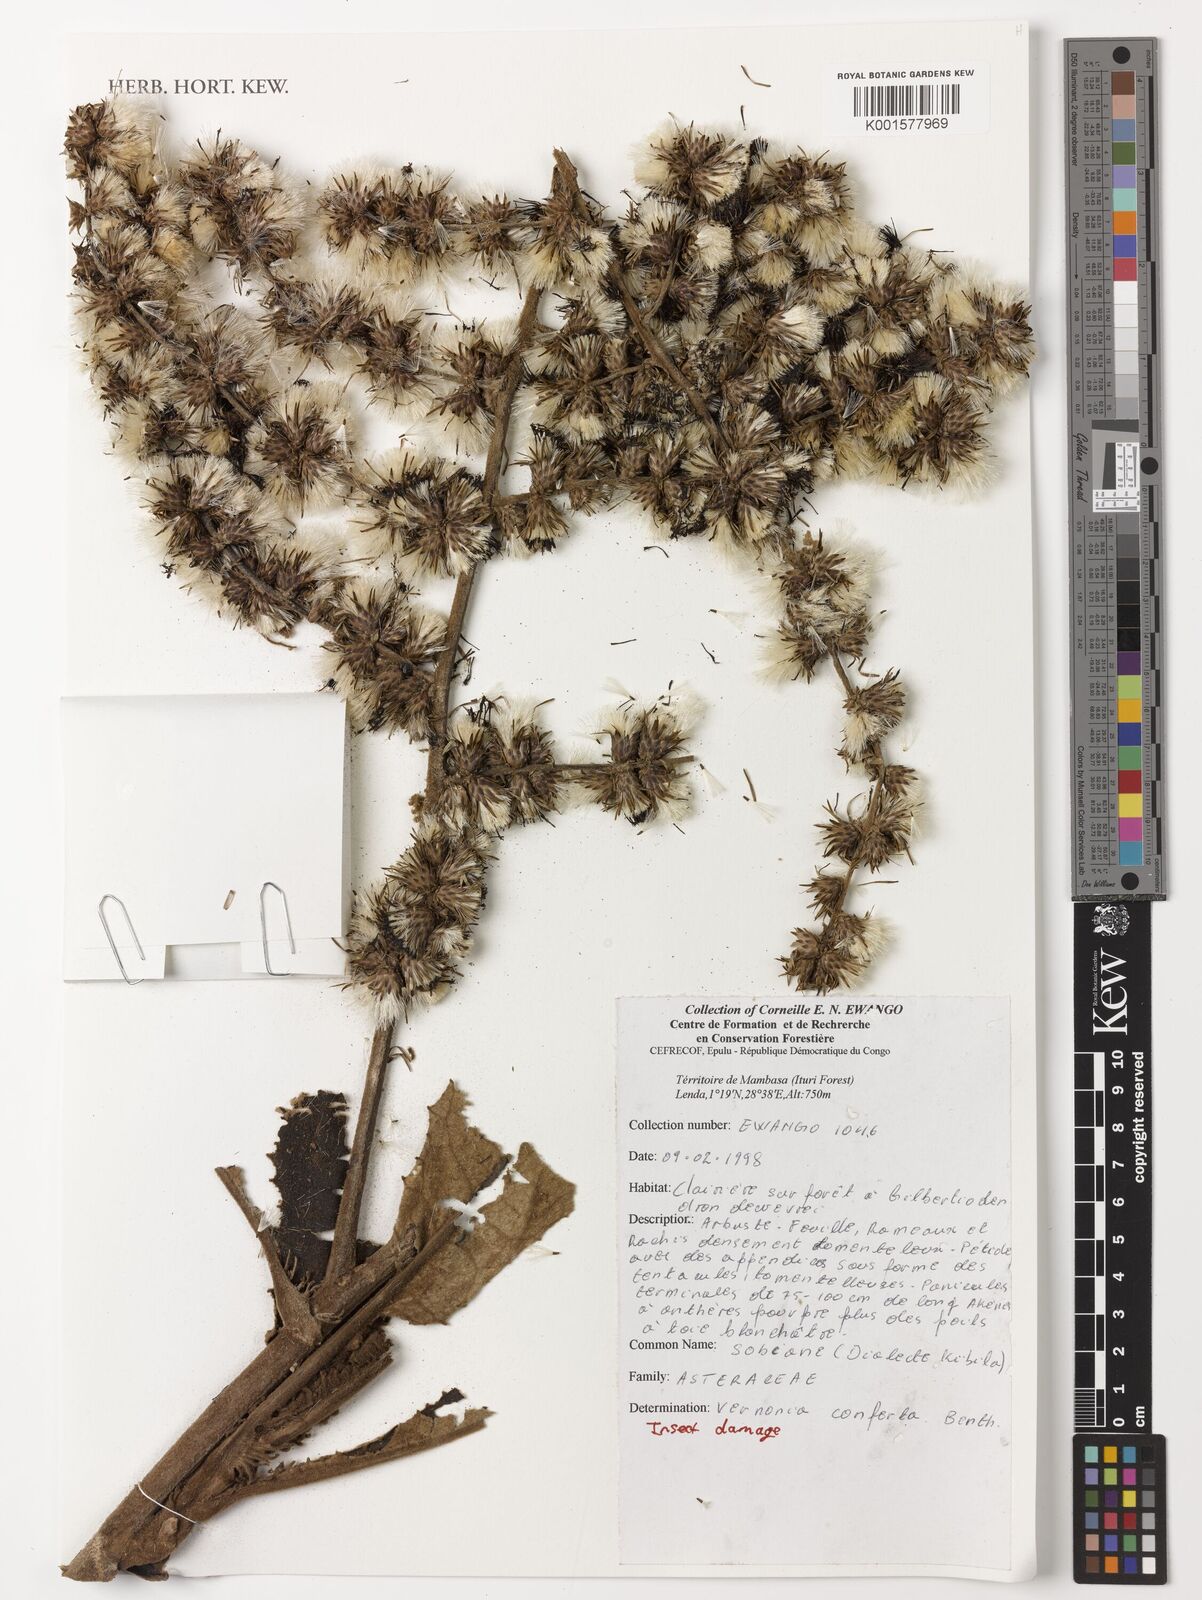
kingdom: Plantae
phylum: Tracheophyta
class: Magnoliopsida
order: Asterales
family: Asteraceae
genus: Monosis
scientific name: Monosis conferta
